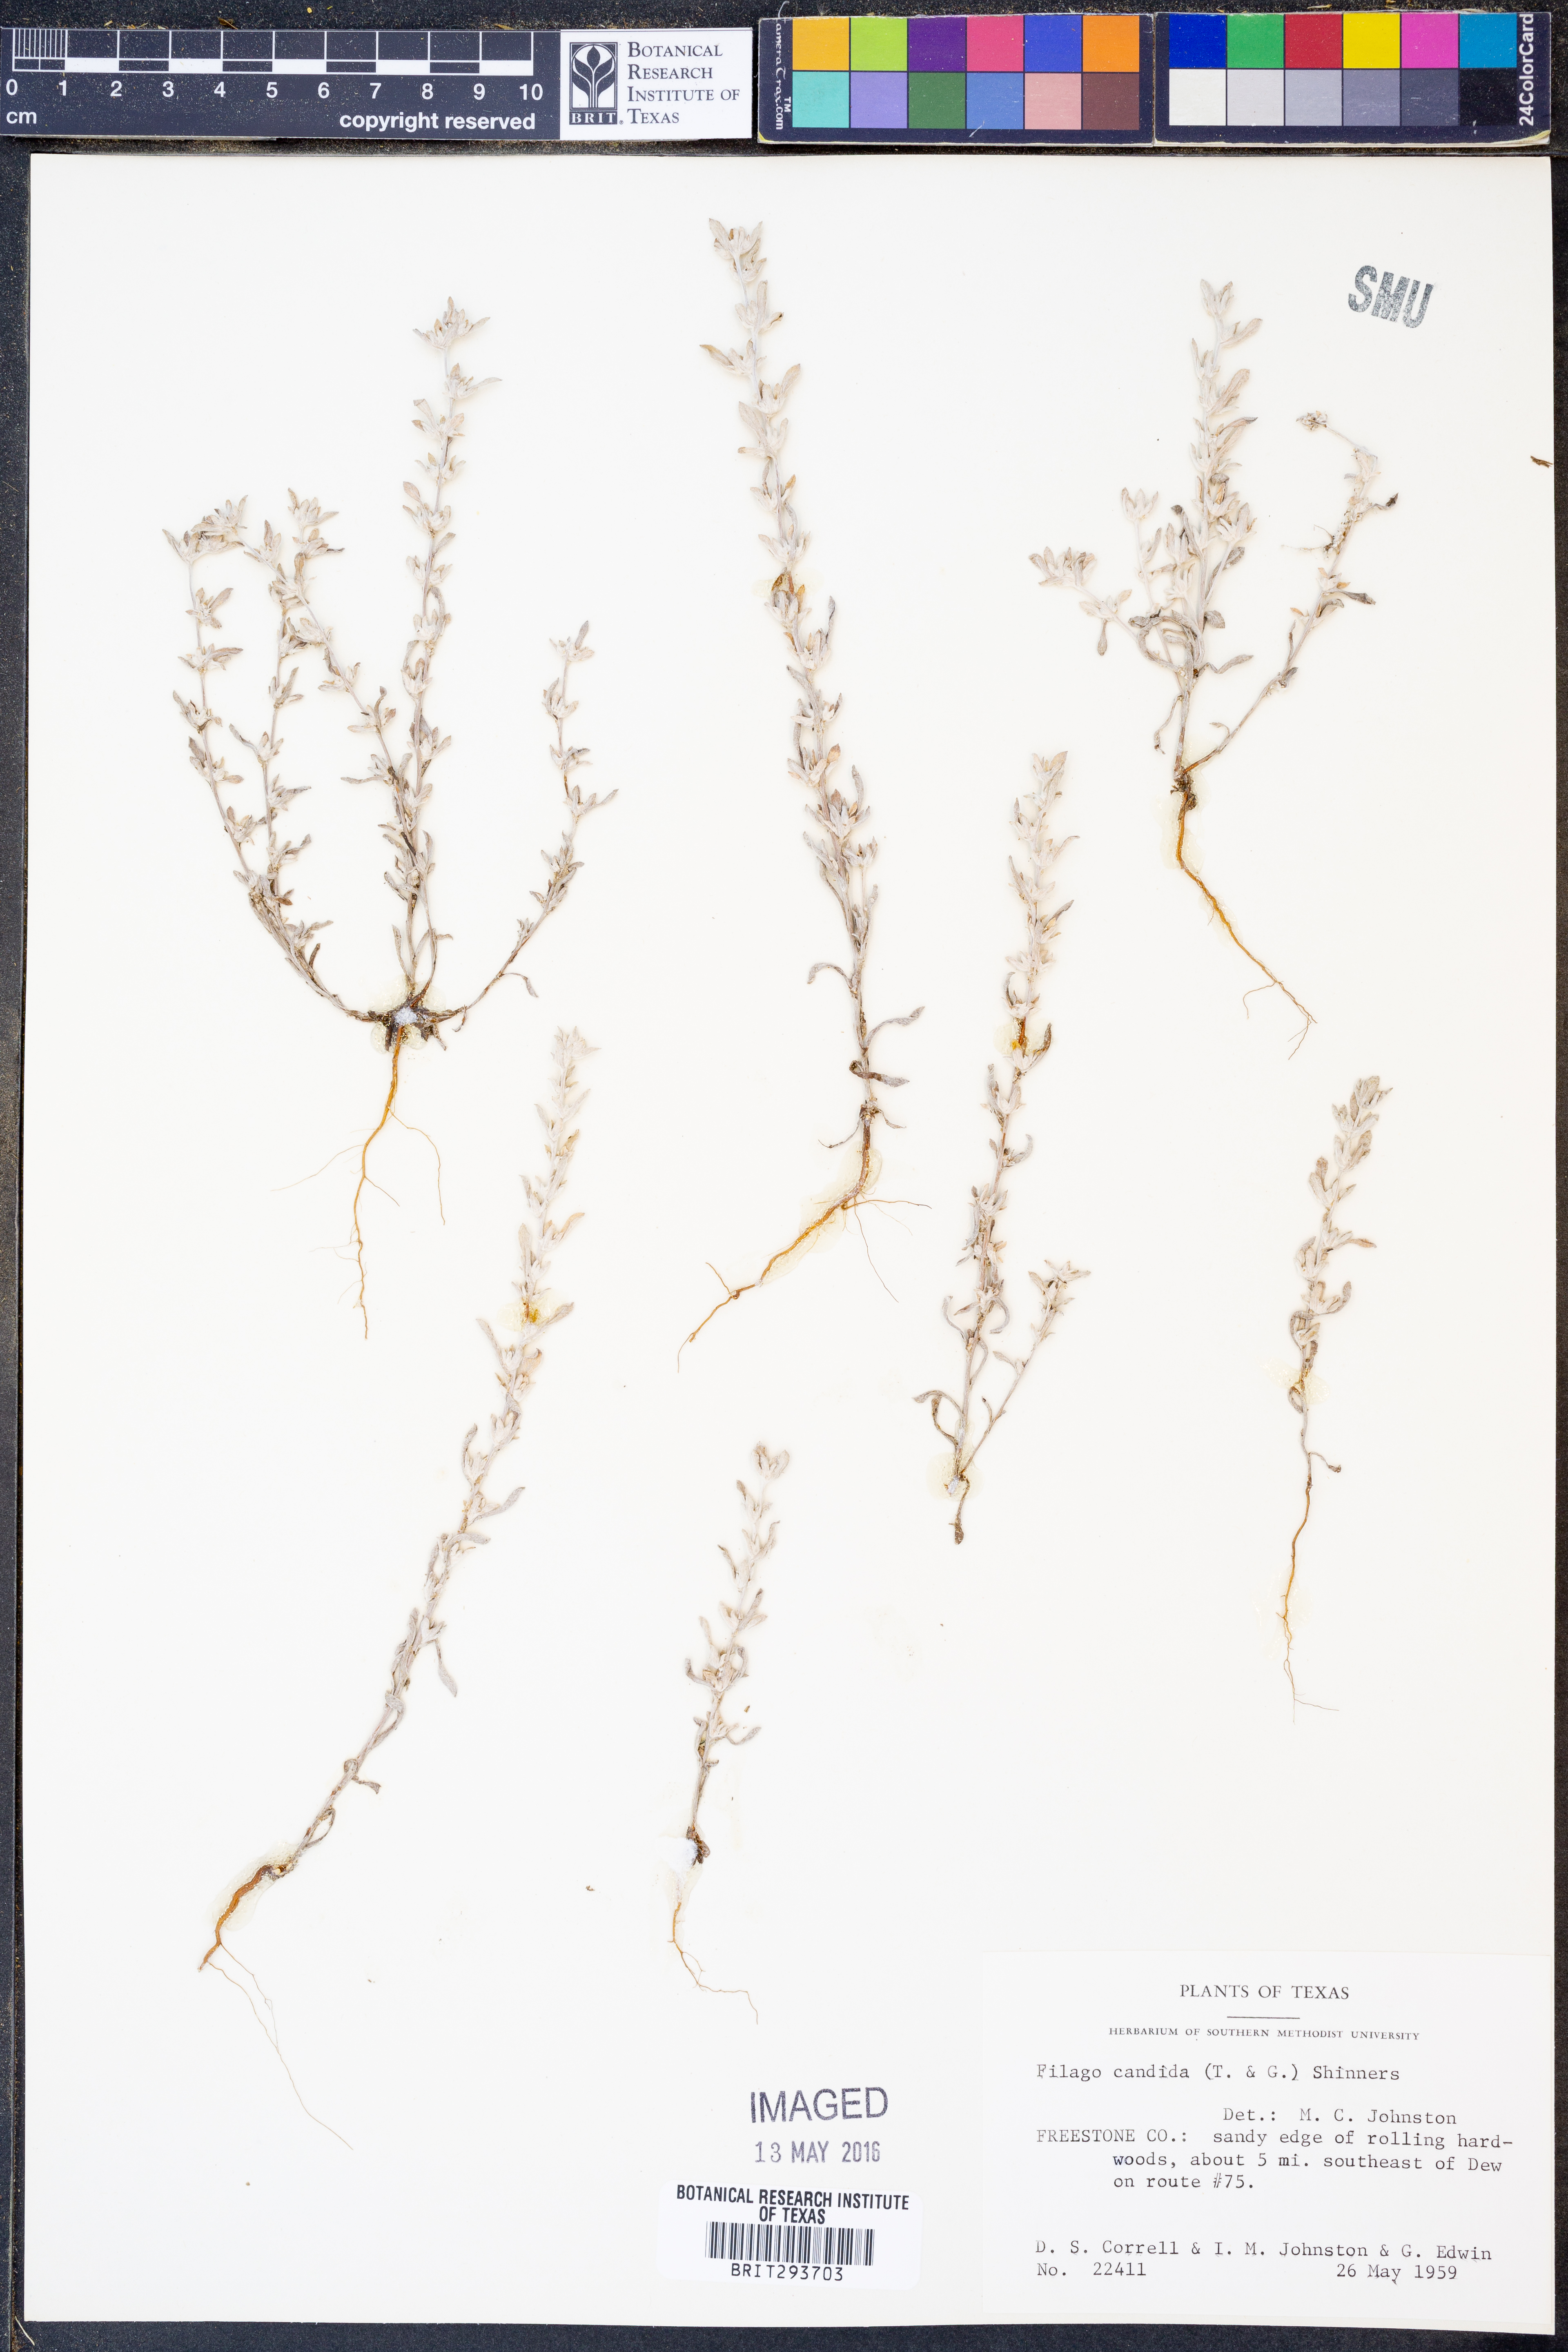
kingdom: Plantae
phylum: Tracheophyta
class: Magnoliopsida
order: Asterales
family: Asteraceae
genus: Diaperia
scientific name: Diaperia candida
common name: Silver rabbit-tobacco
